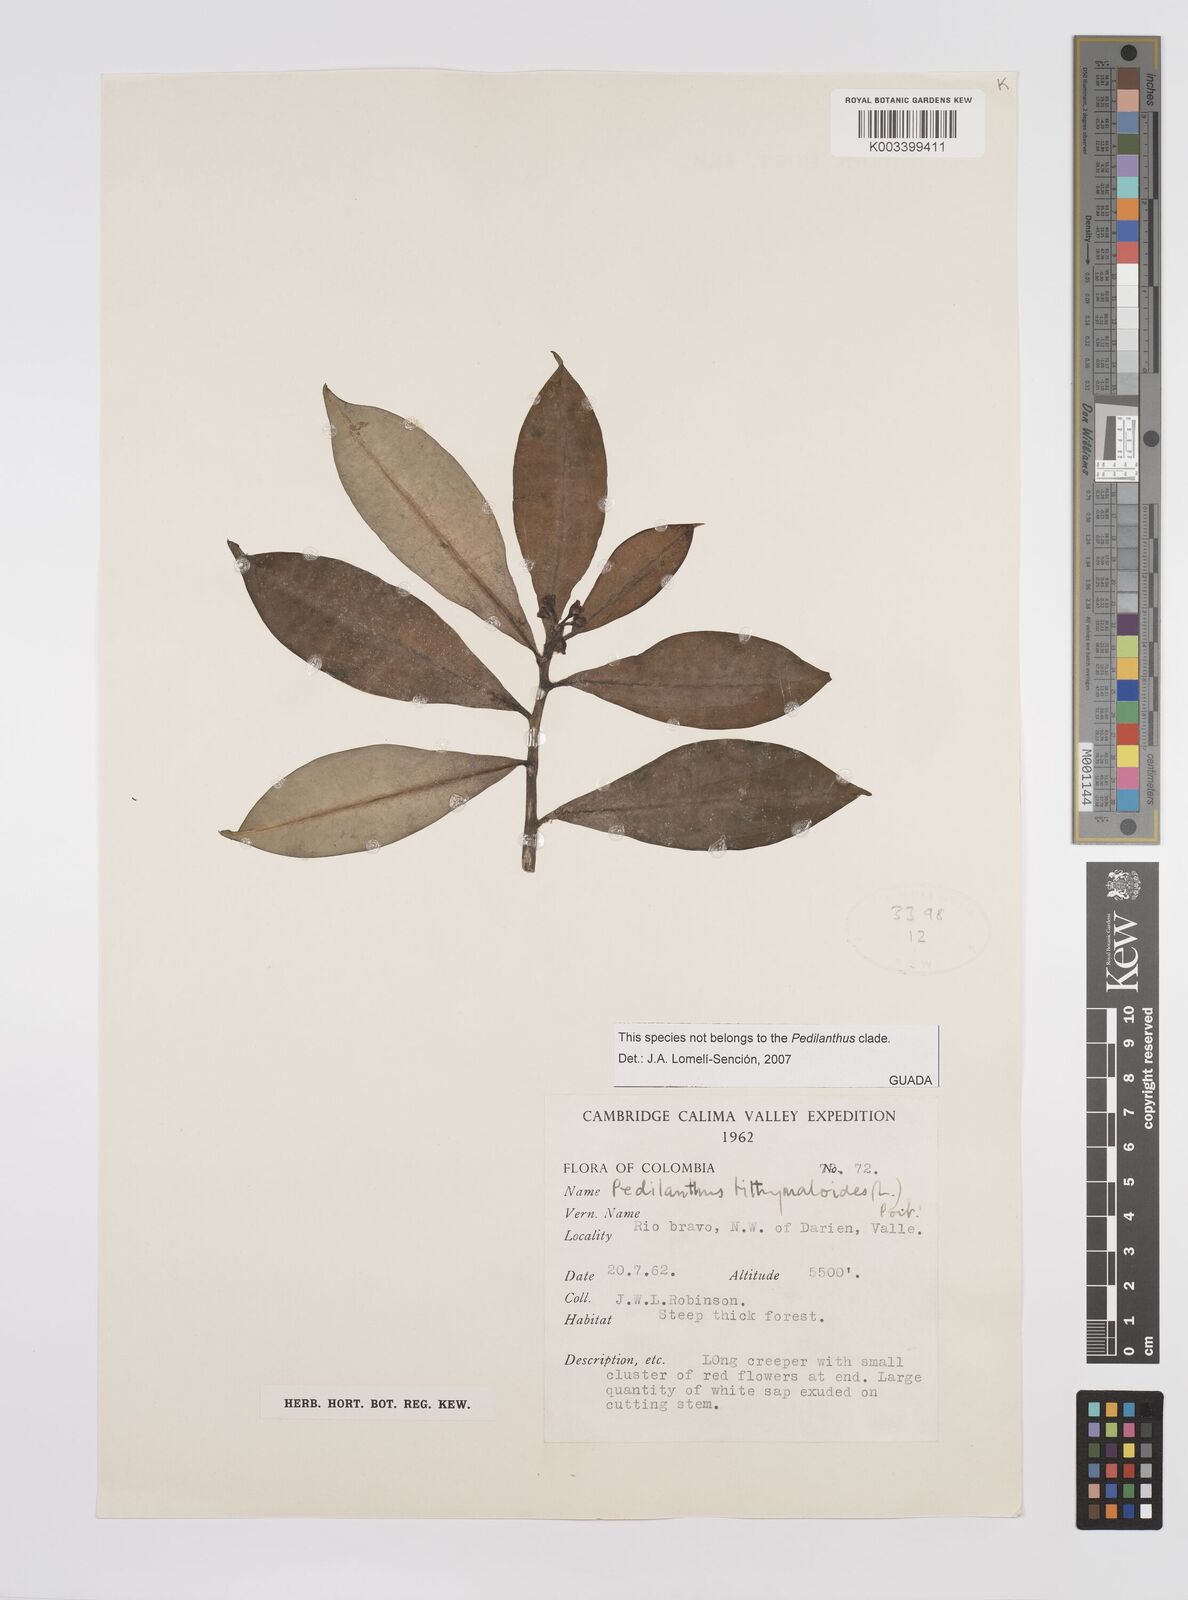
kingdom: Plantae
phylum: Tracheophyta
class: Magnoliopsida
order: Malpighiales
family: Euphorbiaceae
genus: Euphorbia
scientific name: Euphorbia
